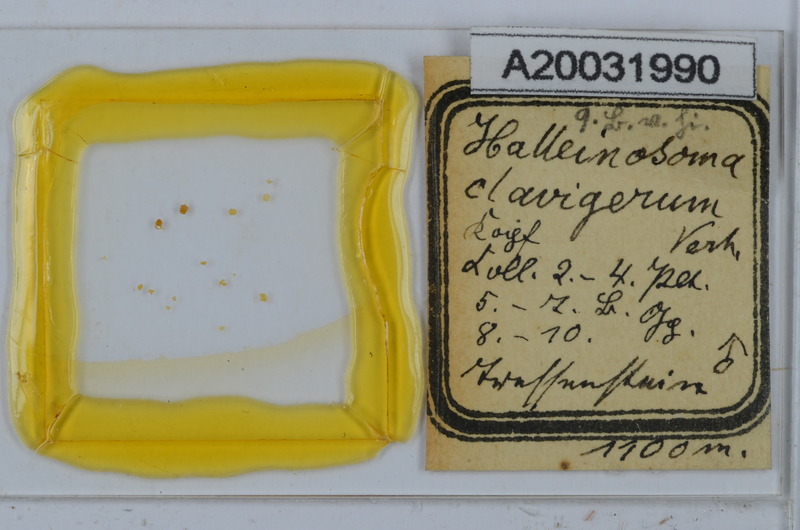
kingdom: Animalia
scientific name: Animalia
